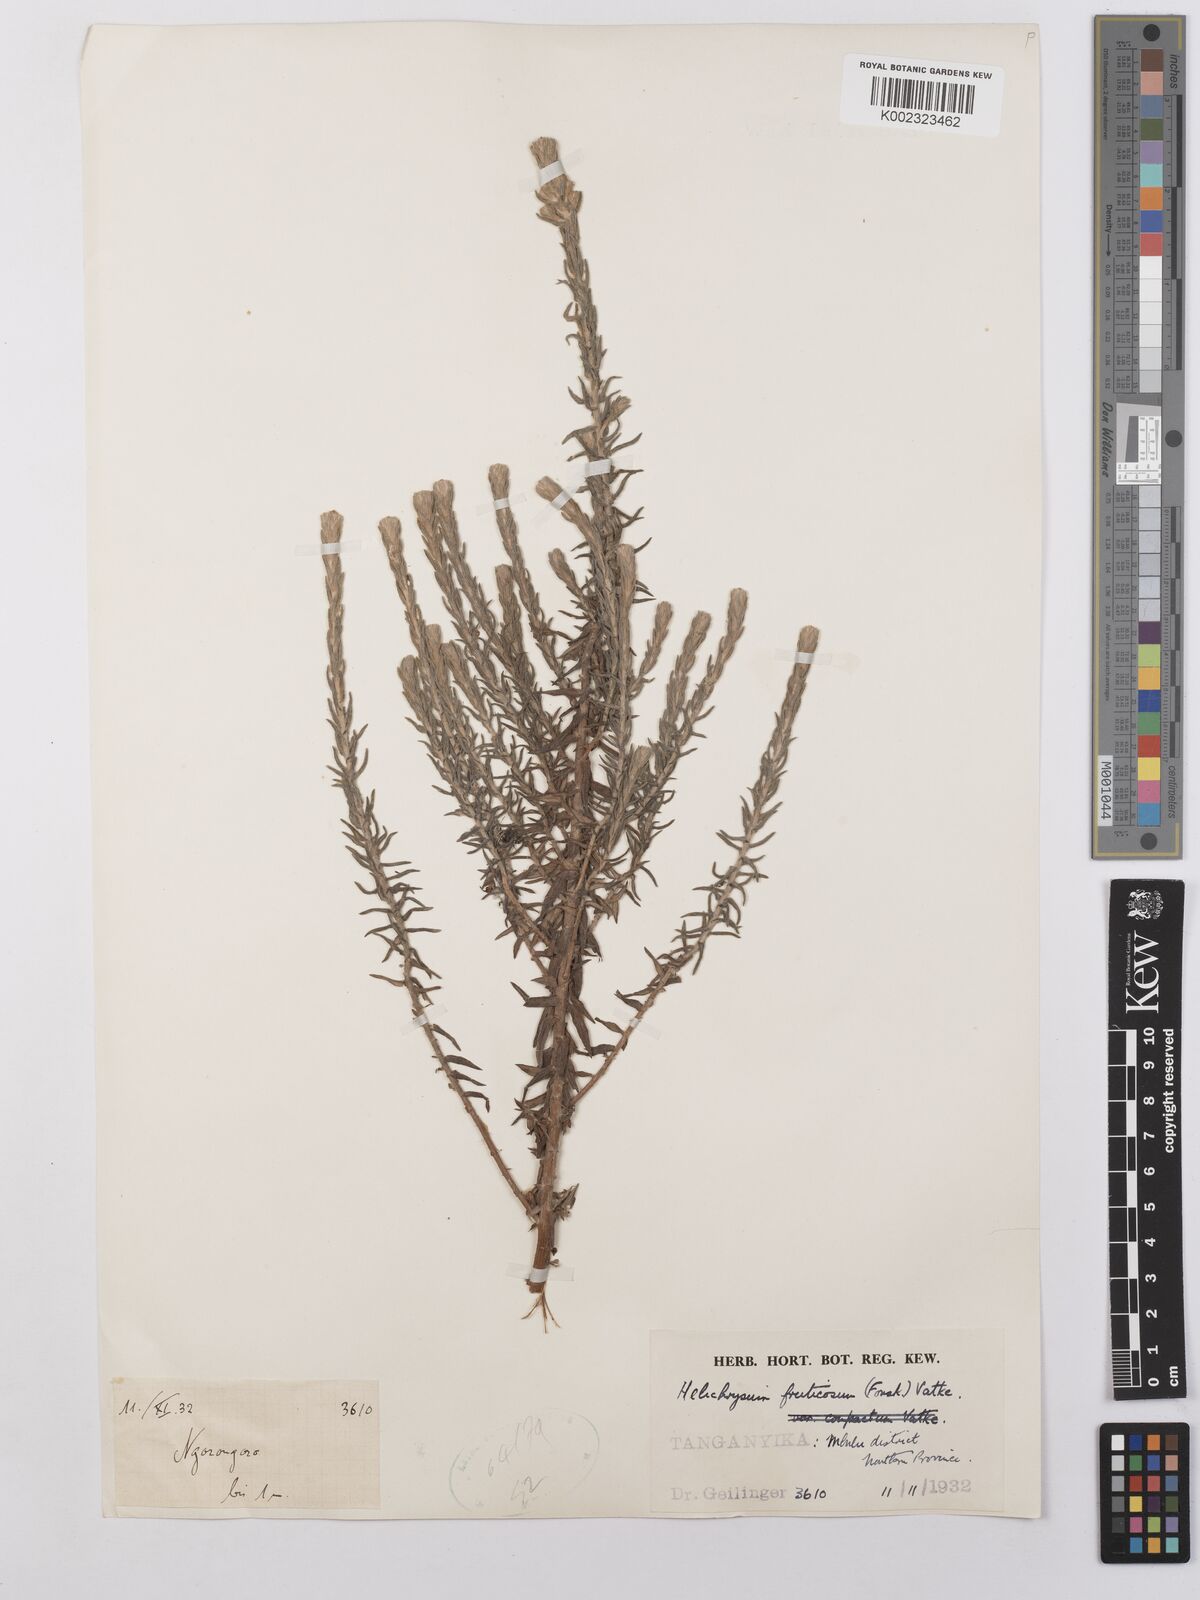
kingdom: Plantae
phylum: Tracheophyta
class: Magnoliopsida
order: Asterales
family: Asteraceae
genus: Helichrysum
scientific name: Helichrysum forskahlii
